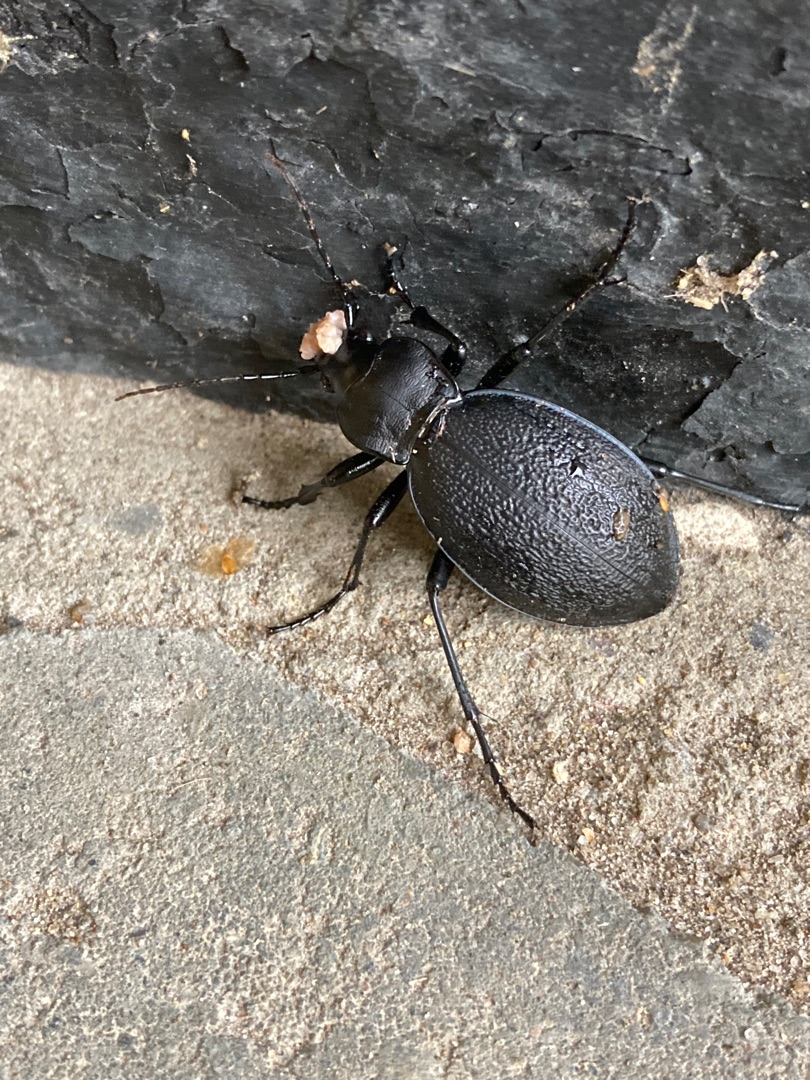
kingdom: Animalia
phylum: Arthropoda
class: Insecta
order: Coleoptera
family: Carabidae
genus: Carabus
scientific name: Carabus coriaceus
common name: Læderløber
